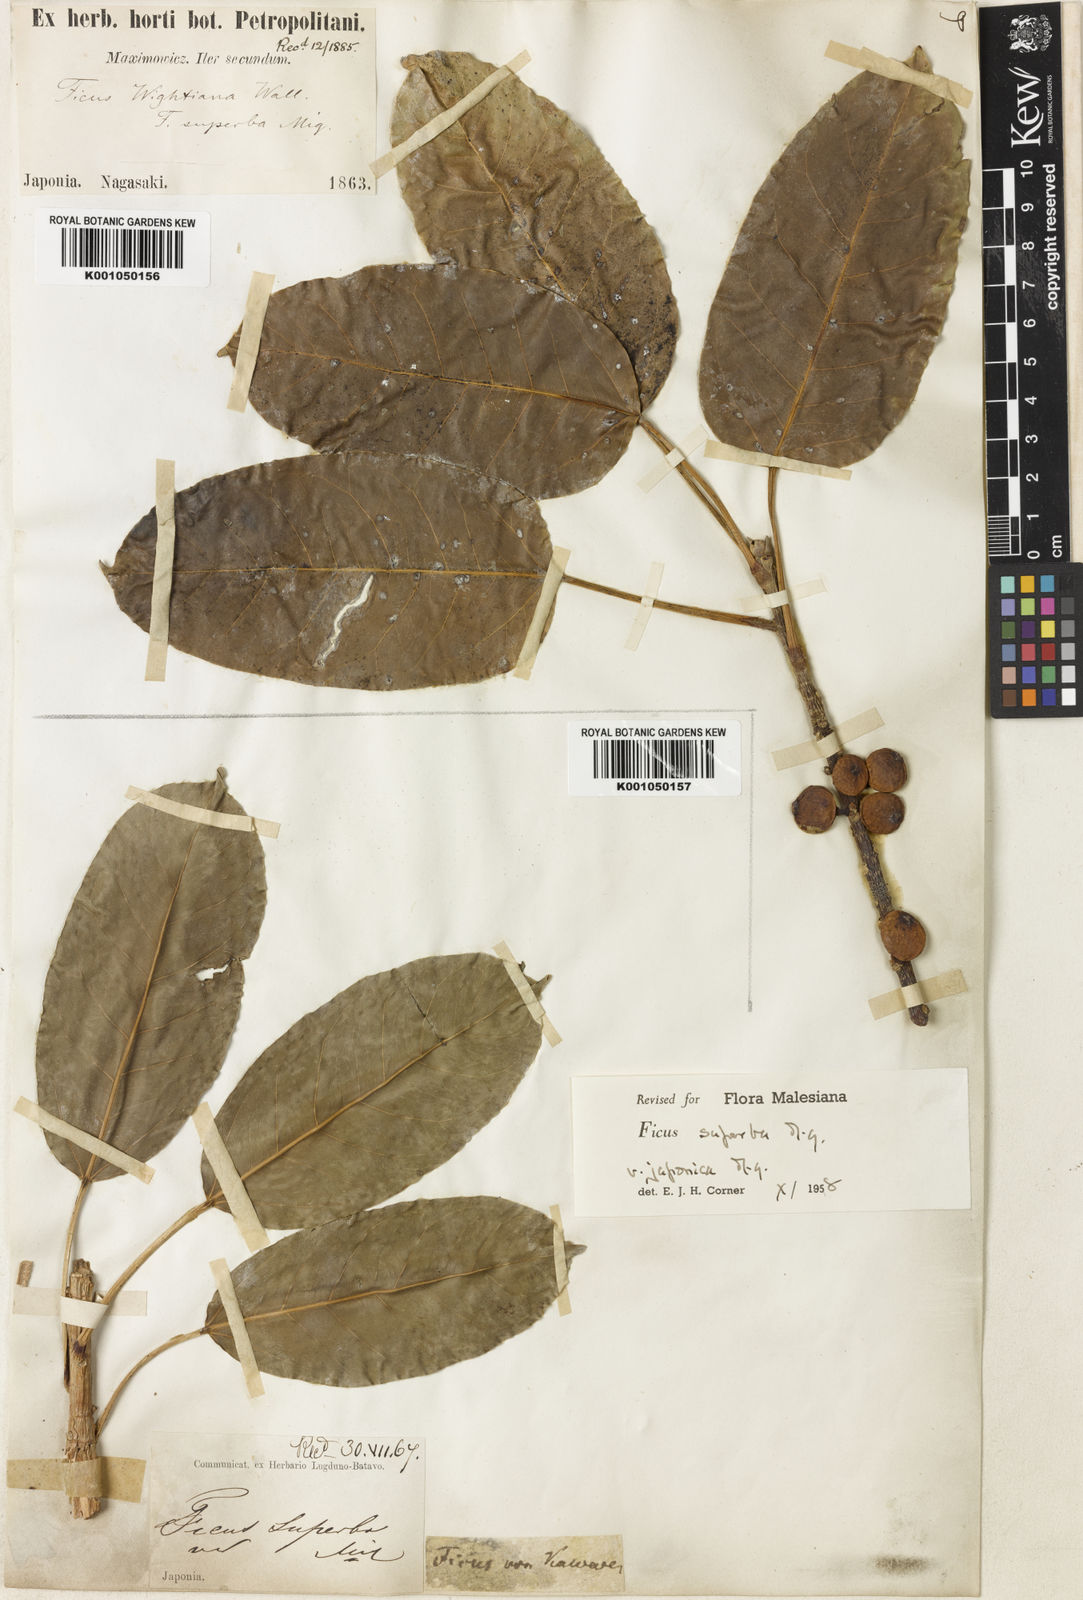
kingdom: Plantae
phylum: Tracheophyta
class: Magnoliopsida
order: Rosales
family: Moraceae
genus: Ficus
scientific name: Ficus superba
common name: Cedar fig
